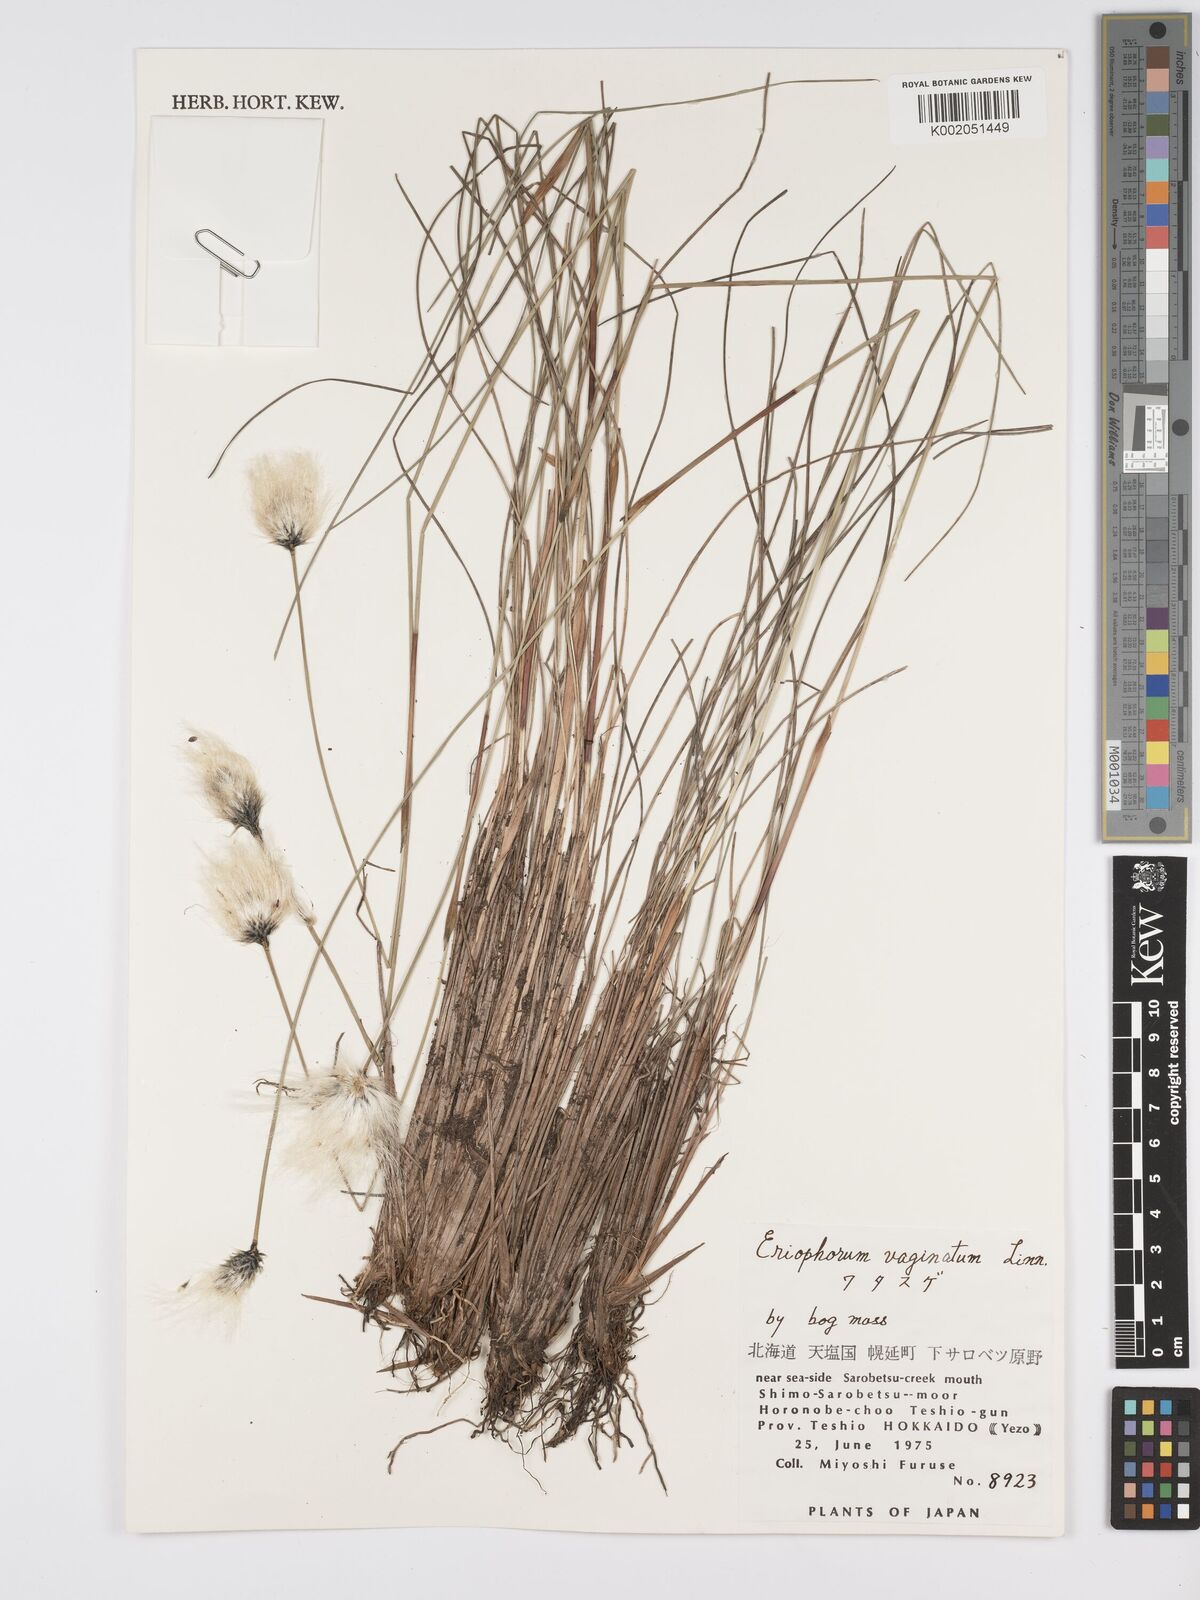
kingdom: Plantae
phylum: Tracheophyta
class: Liliopsida
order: Poales
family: Cyperaceae
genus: Eriophorum
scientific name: Eriophorum vaginatum
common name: Hare's-tail cottongrass
